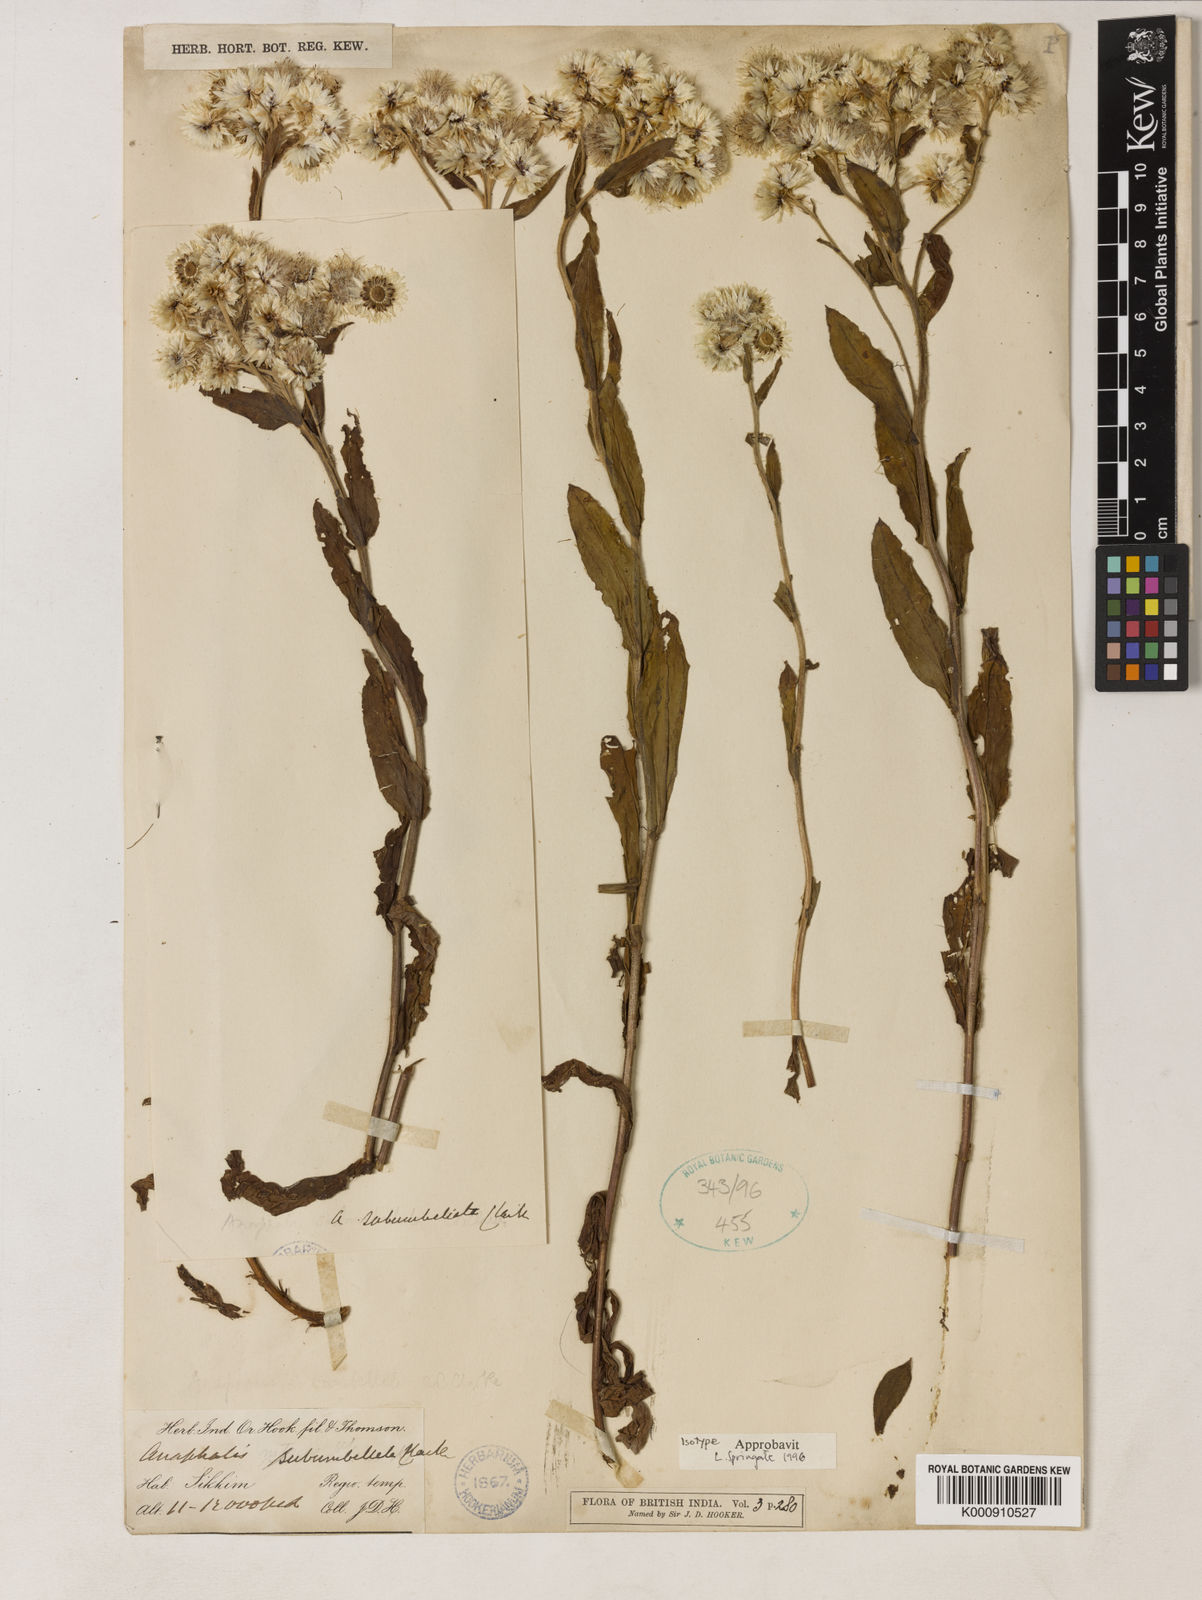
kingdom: Plantae
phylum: Tracheophyta
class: Magnoliopsida
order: Asterales
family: Asteraceae
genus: Anaphalis
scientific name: Anaphalis subumbellata
